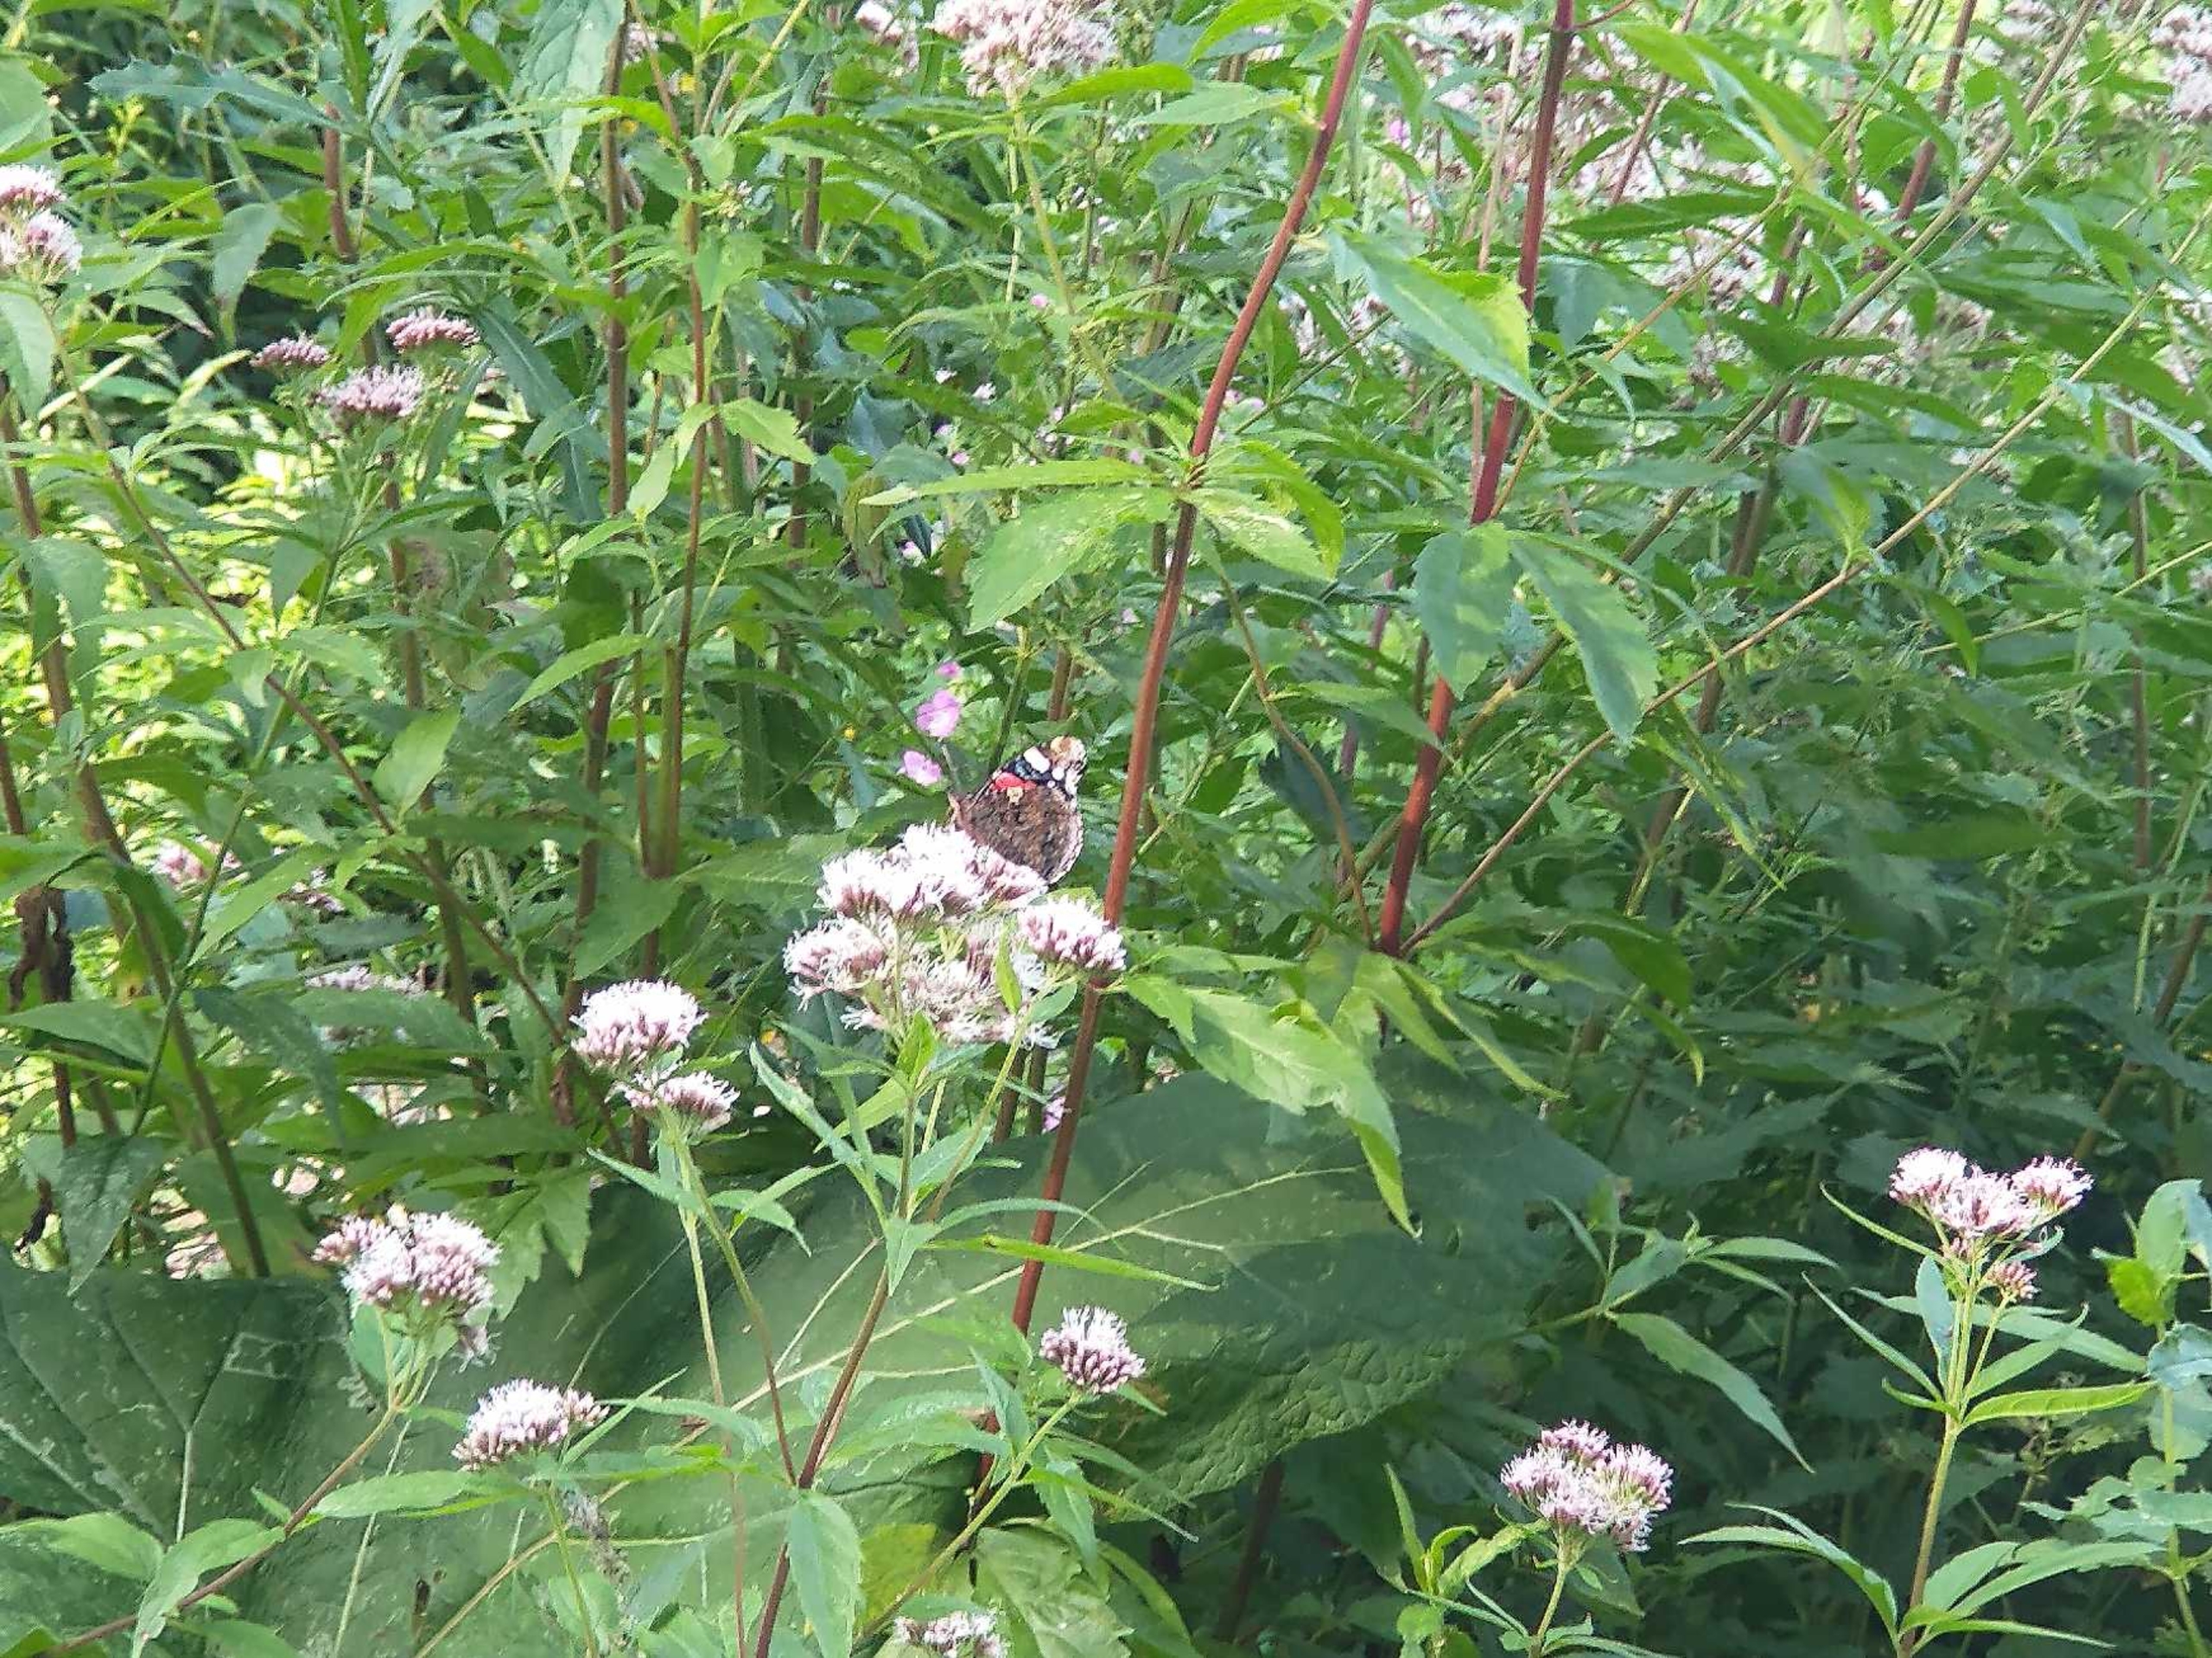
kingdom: Plantae
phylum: Tracheophyta
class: Magnoliopsida
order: Asterales
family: Asteraceae
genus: Eupatorium
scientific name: Eupatorium cannabinum
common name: Hjortetrøst
